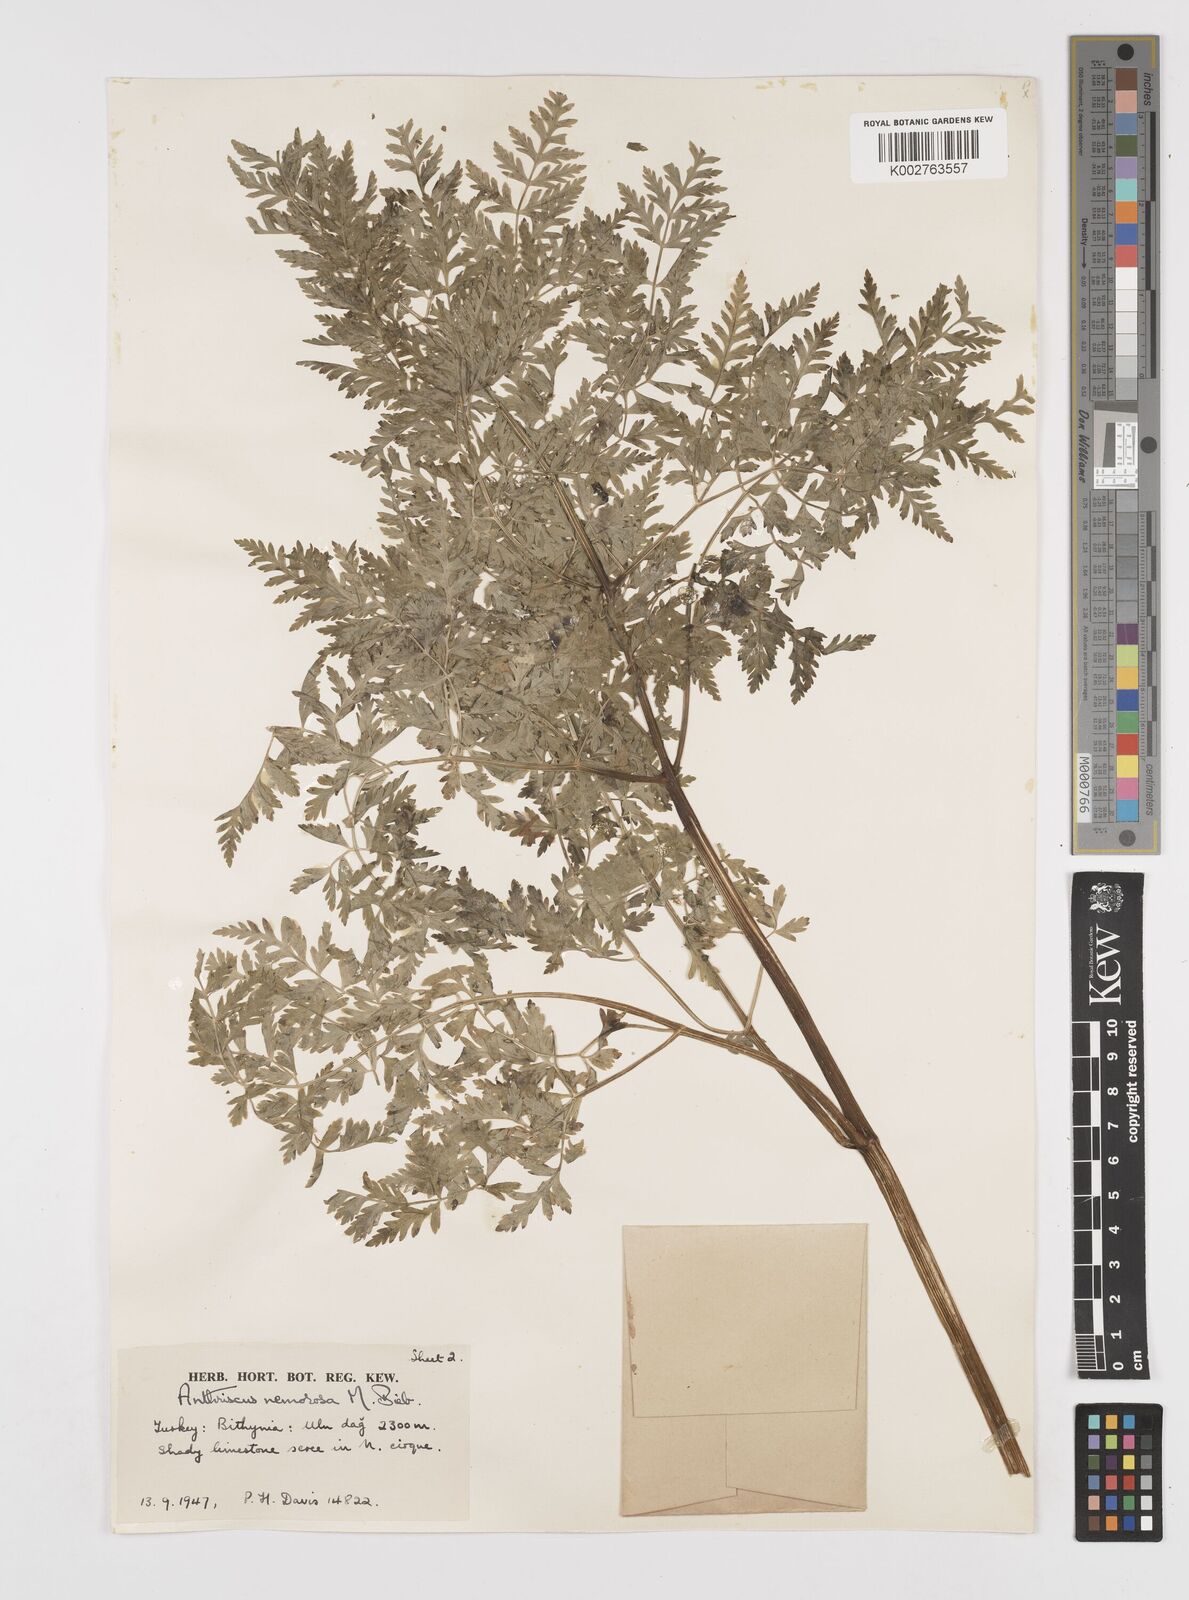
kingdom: Plantae
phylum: Tracheophyta
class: Magnoliopsida
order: Apiales
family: Apiaceae
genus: Anthriscus
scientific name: Anthriscus sylvestris
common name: Cow parsley
